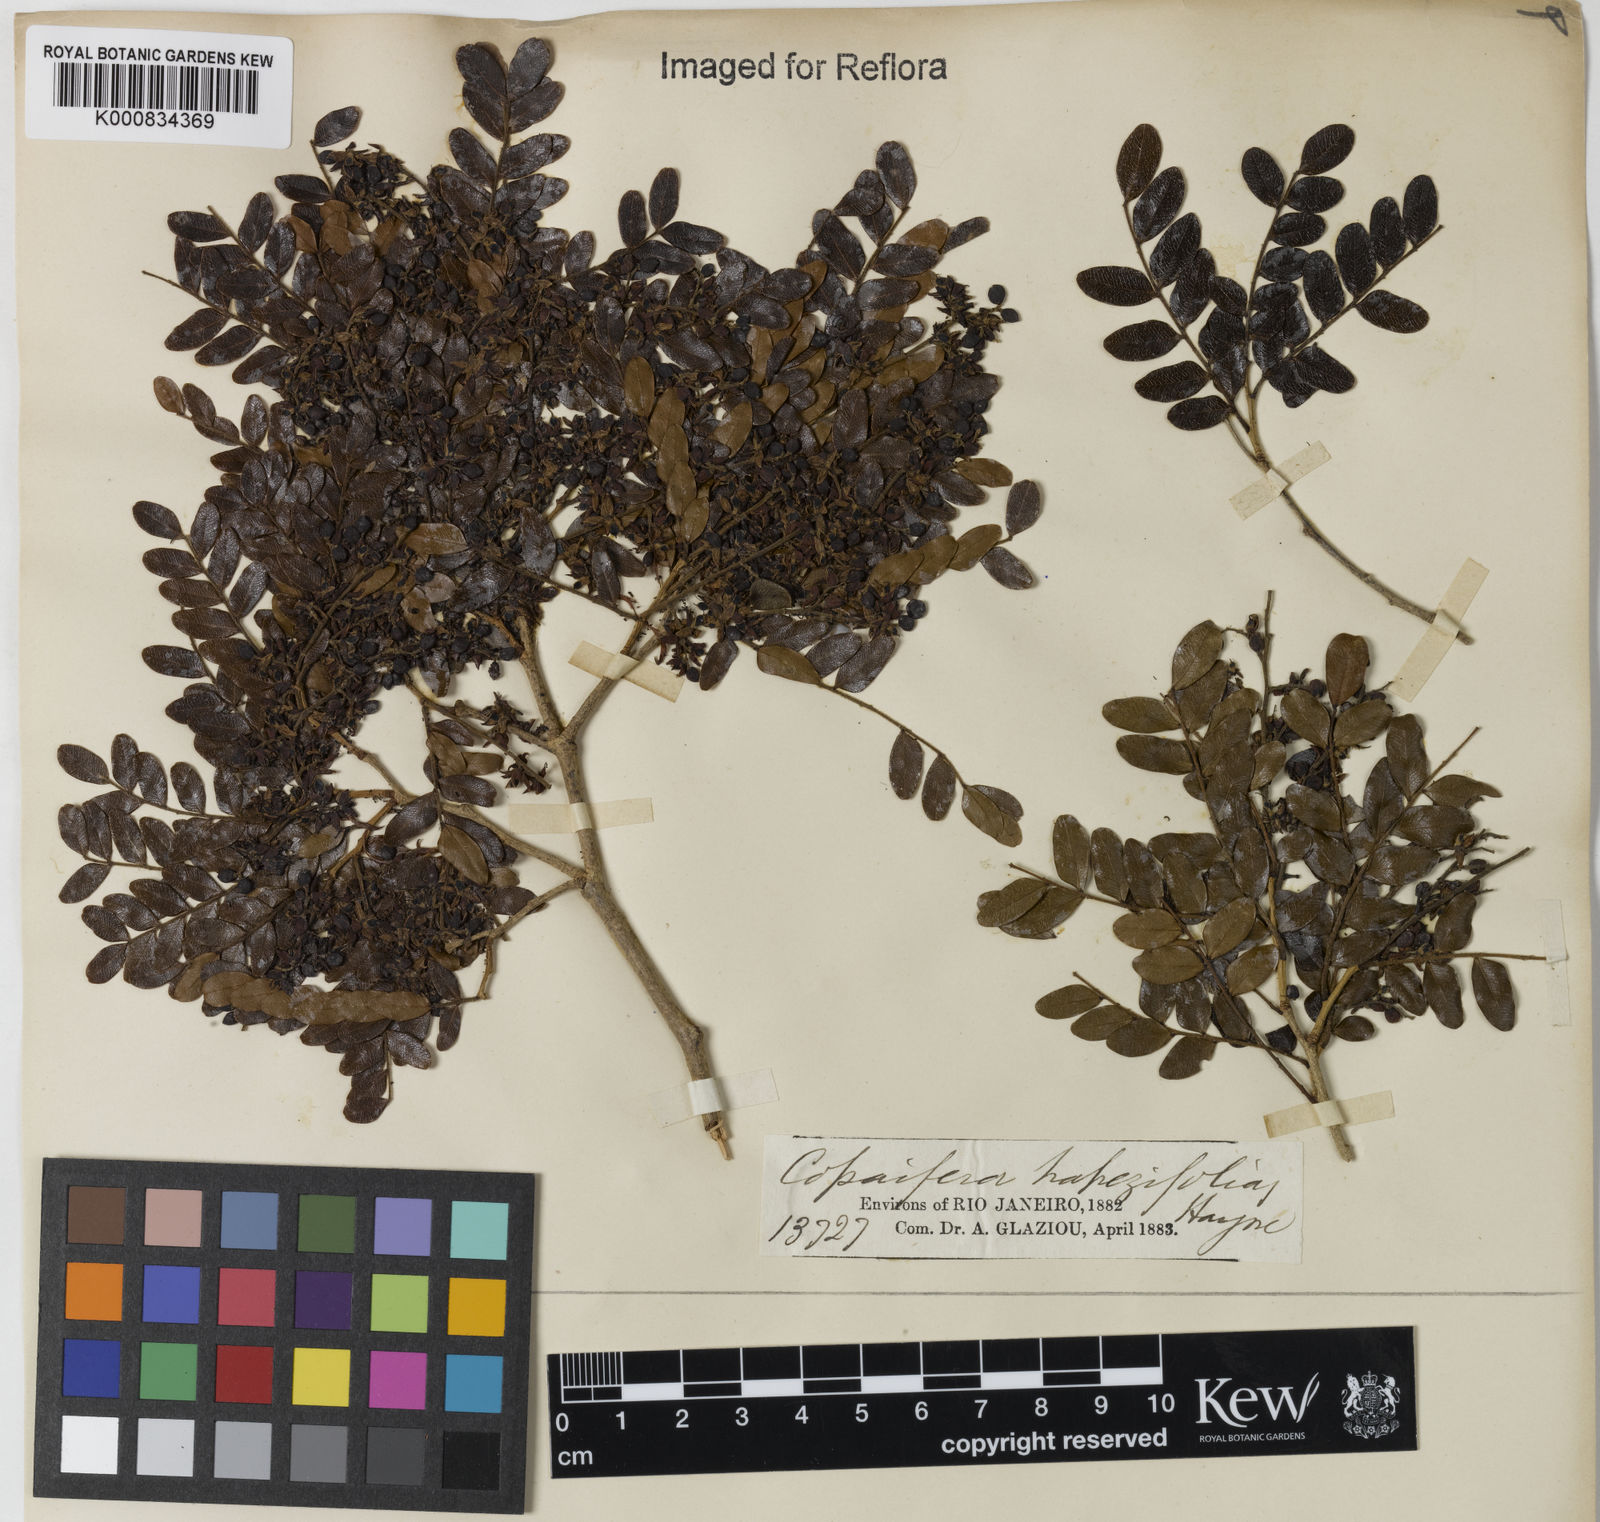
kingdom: Plantae
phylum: Tracheophyta
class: Magnoliopsida
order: Fabales
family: Fabaceae
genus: Copaifera
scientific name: Copaifera trapezifolia
